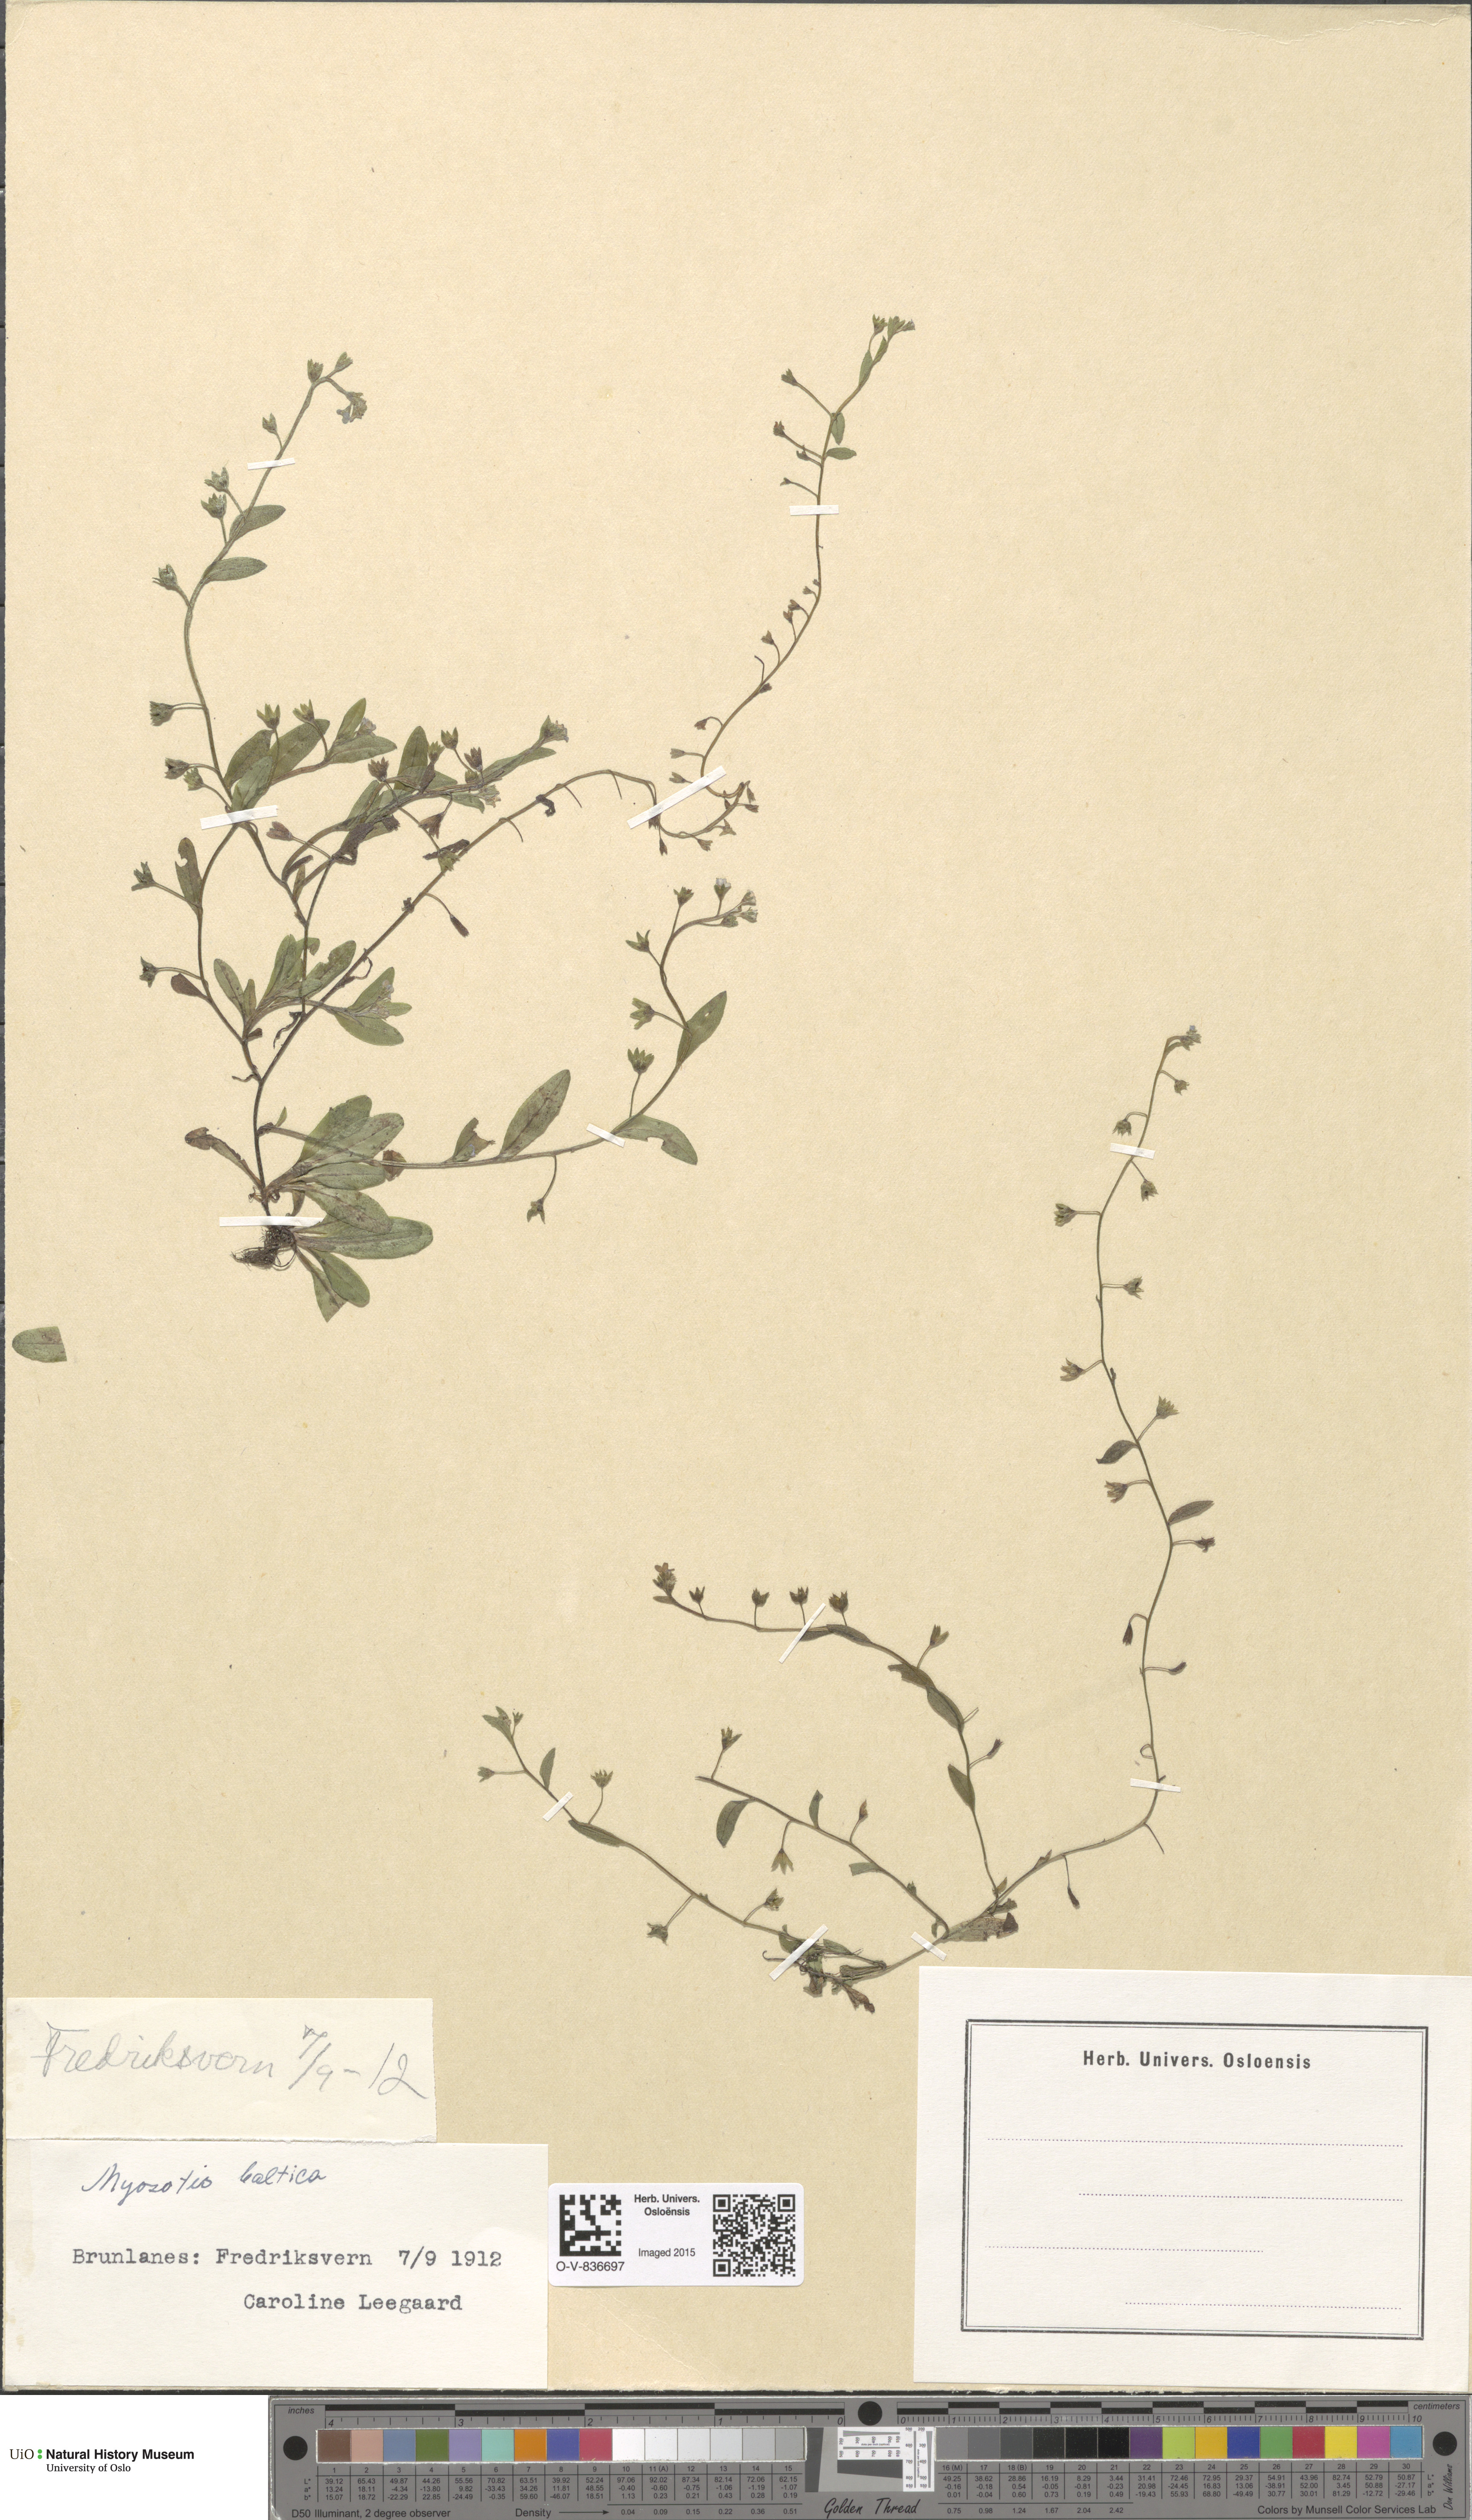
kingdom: Plantae
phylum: Tracheophyta
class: Magnoliopsida
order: Boraginales
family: Boraginaceae
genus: Myosotis
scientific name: Myosotis laxa
